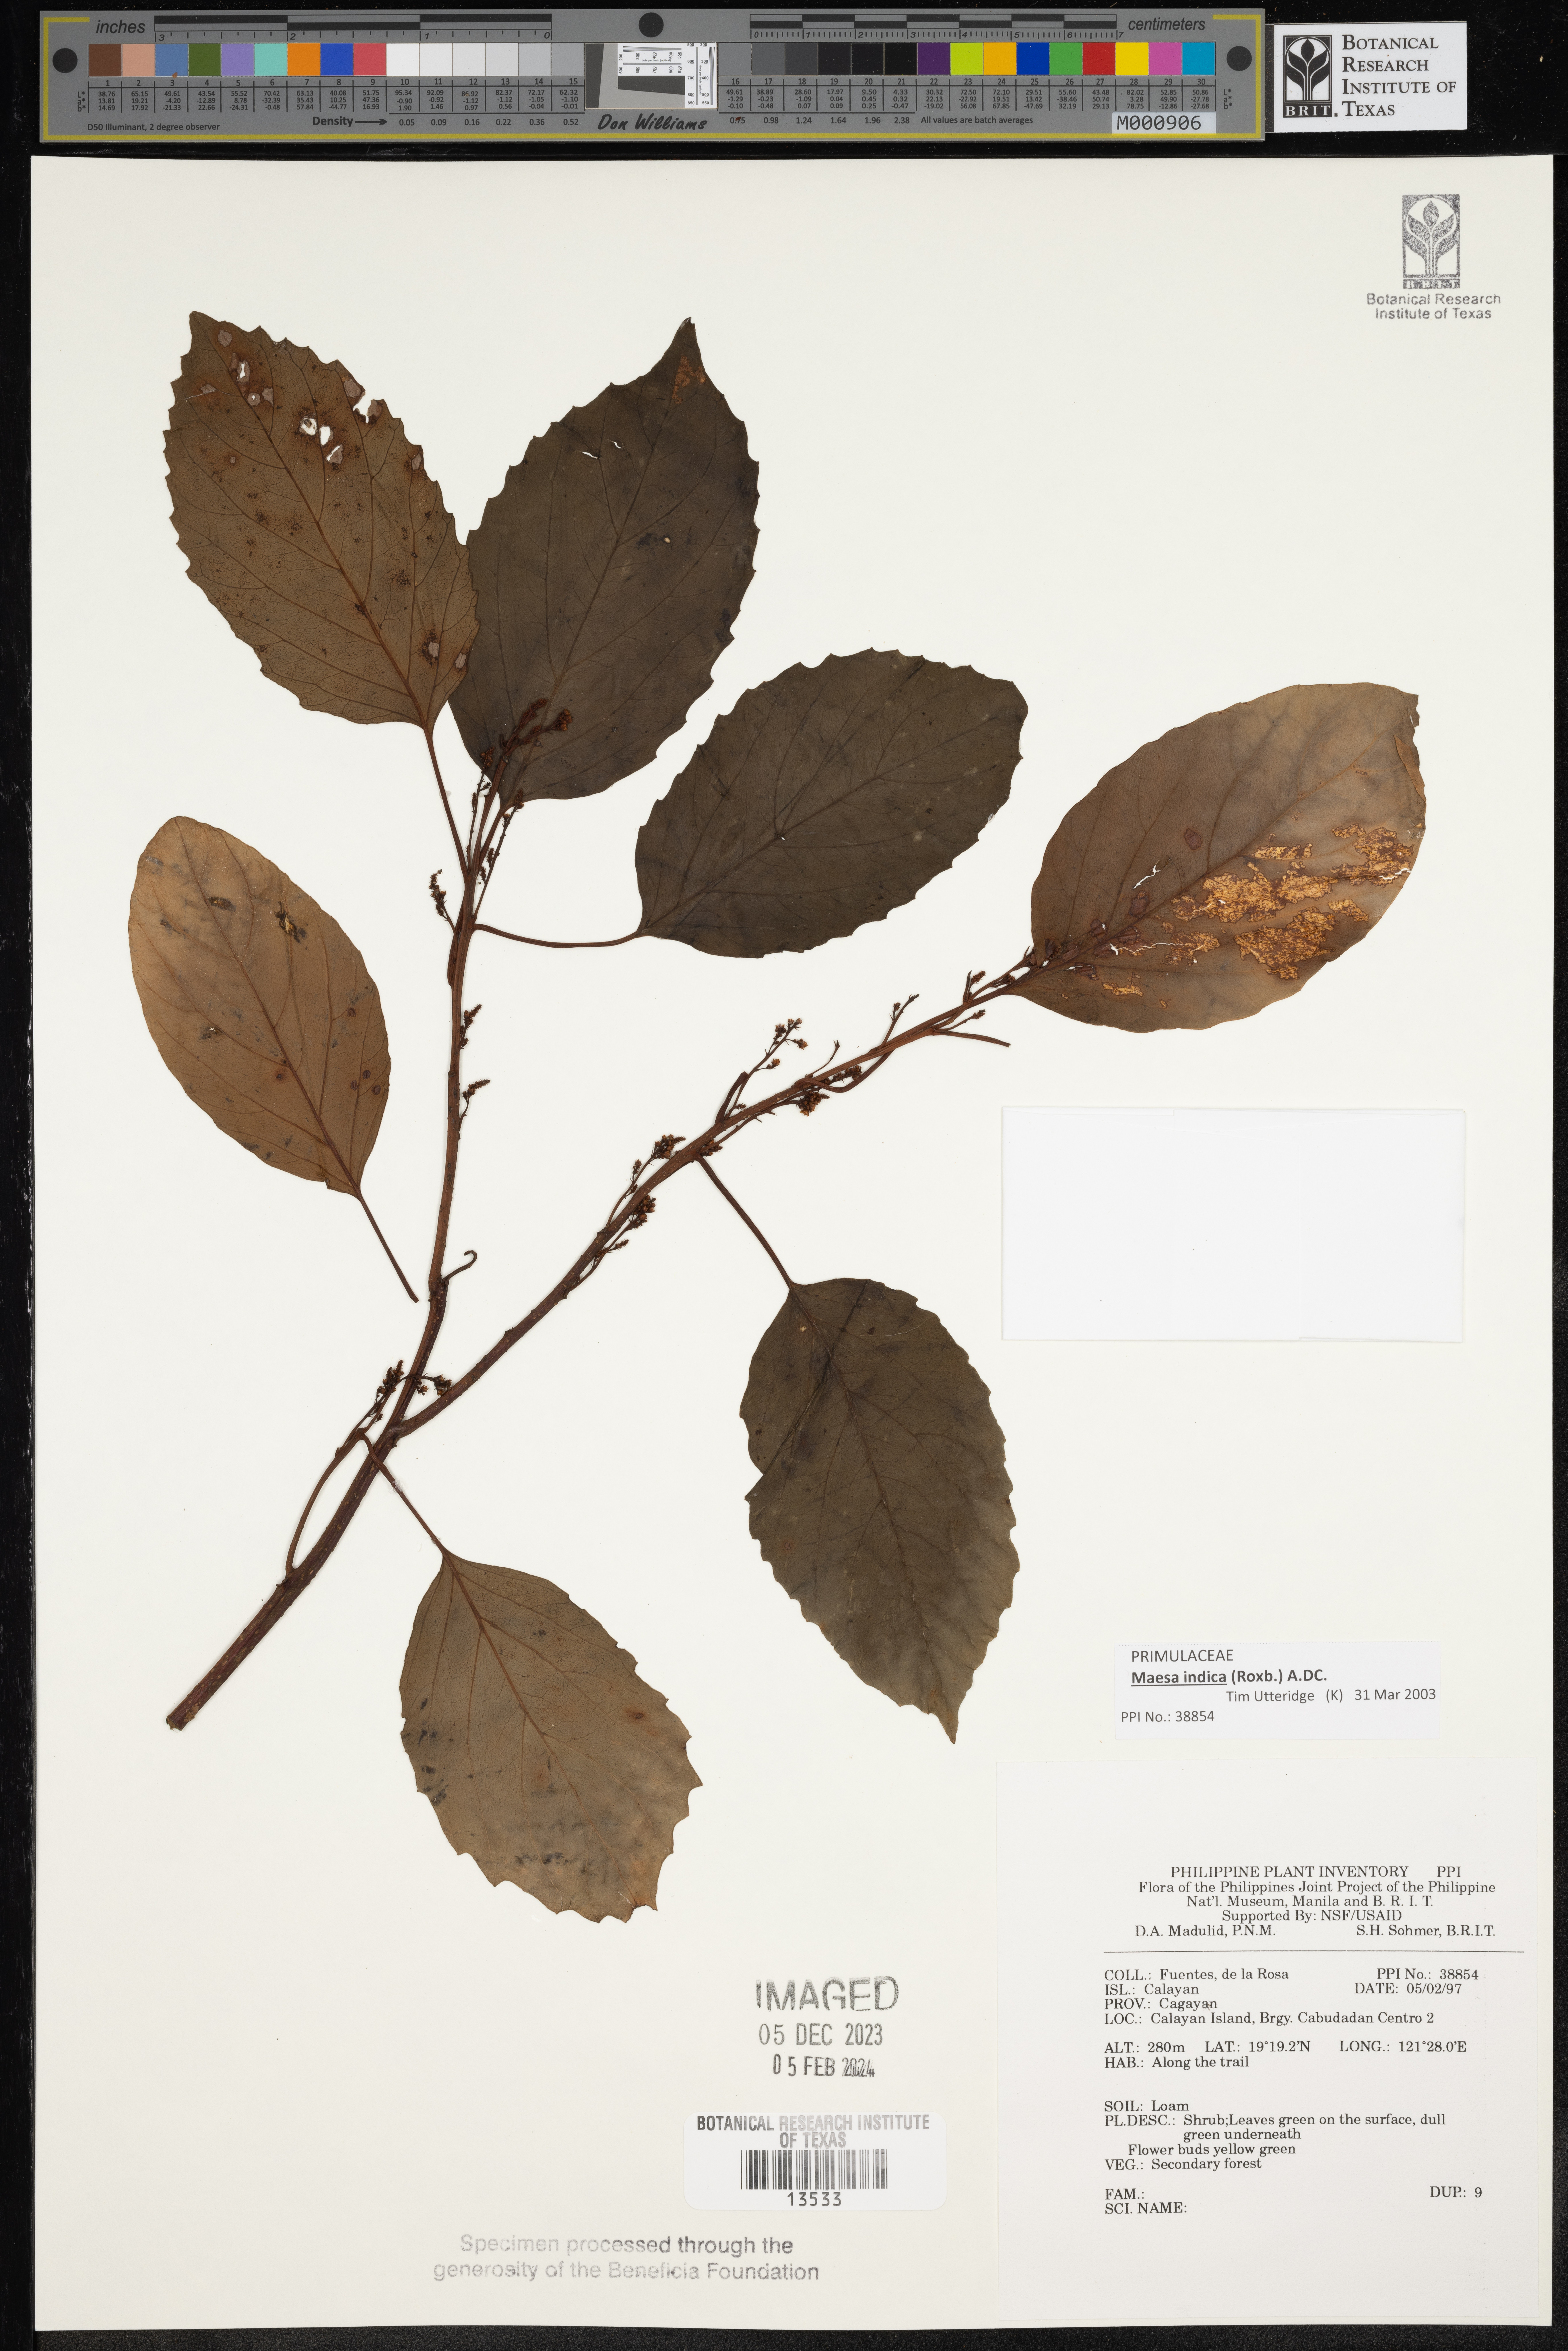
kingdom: Plantae
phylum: Tracheophyta
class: Magnoliopsida
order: Ericales
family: Primulaceae
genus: Maesa
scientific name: Maesa
